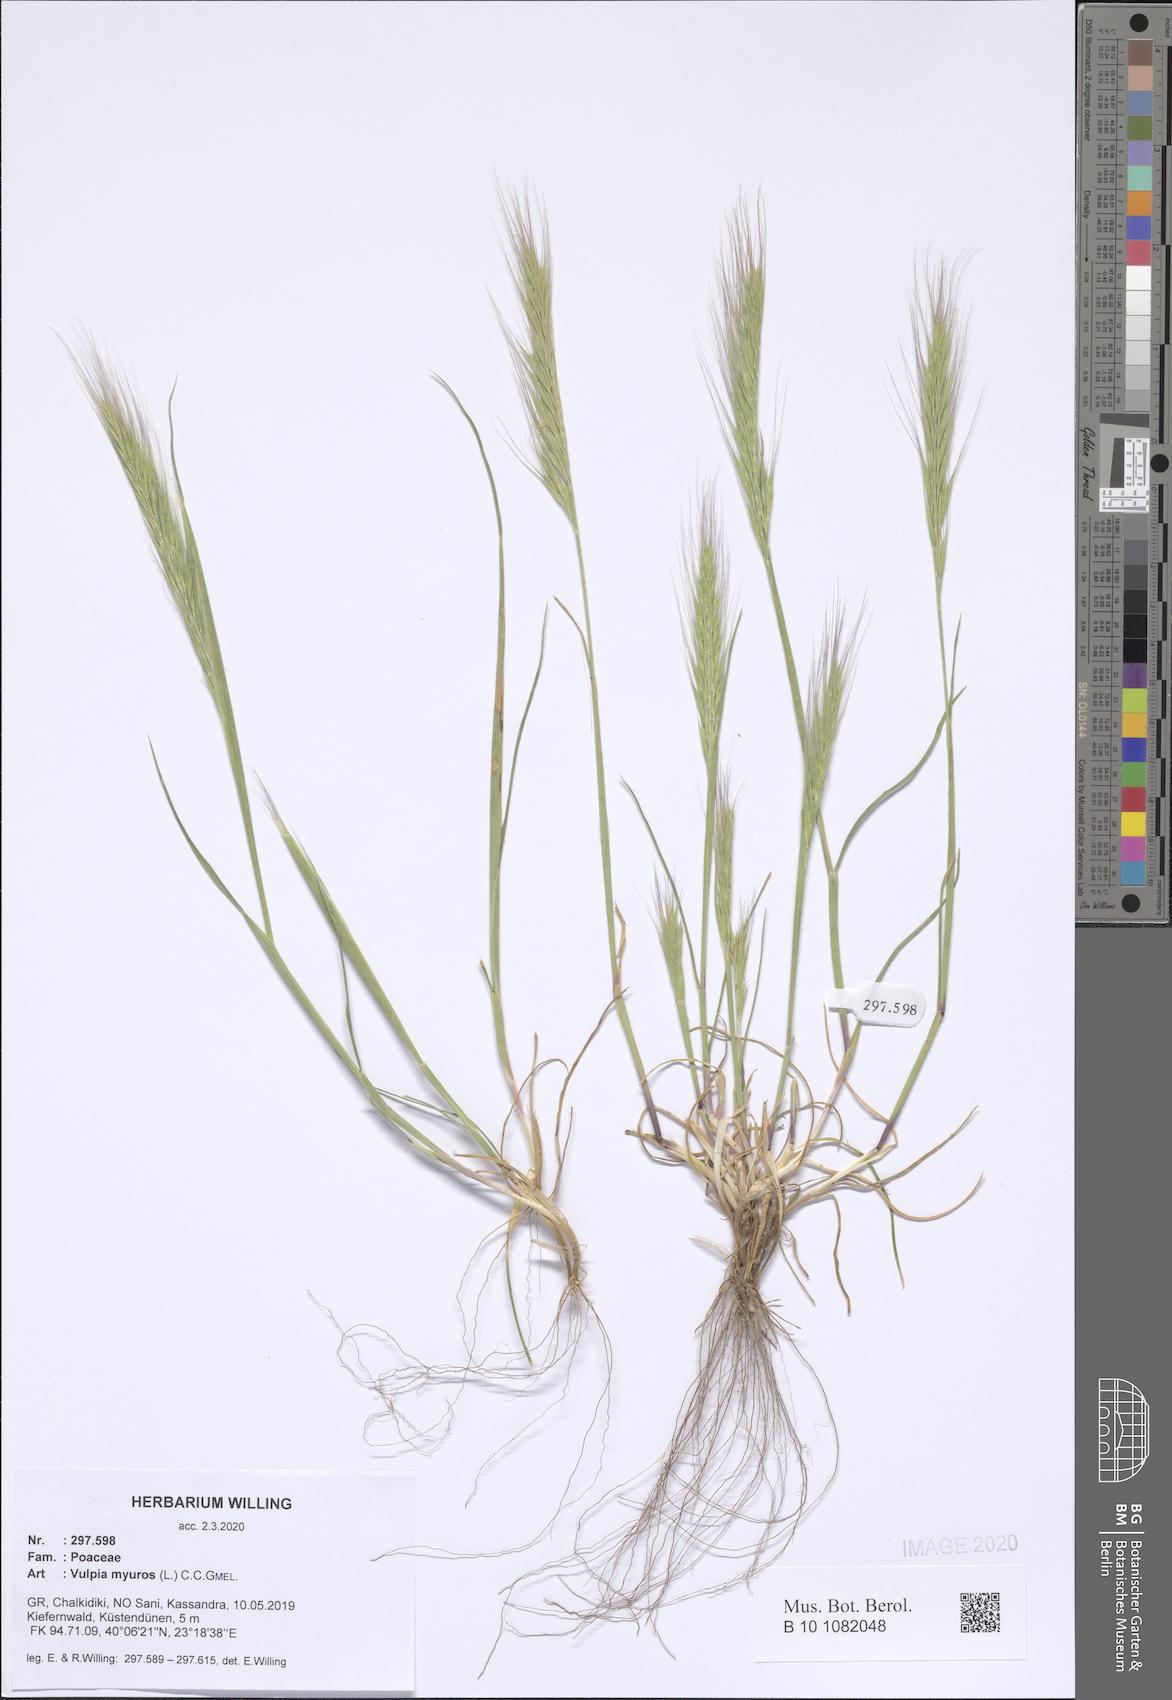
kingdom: Plantae
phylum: Tracheophyta
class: Liliopsida
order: Poales
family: Poaceae
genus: Festuca
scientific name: Festuca myuros
